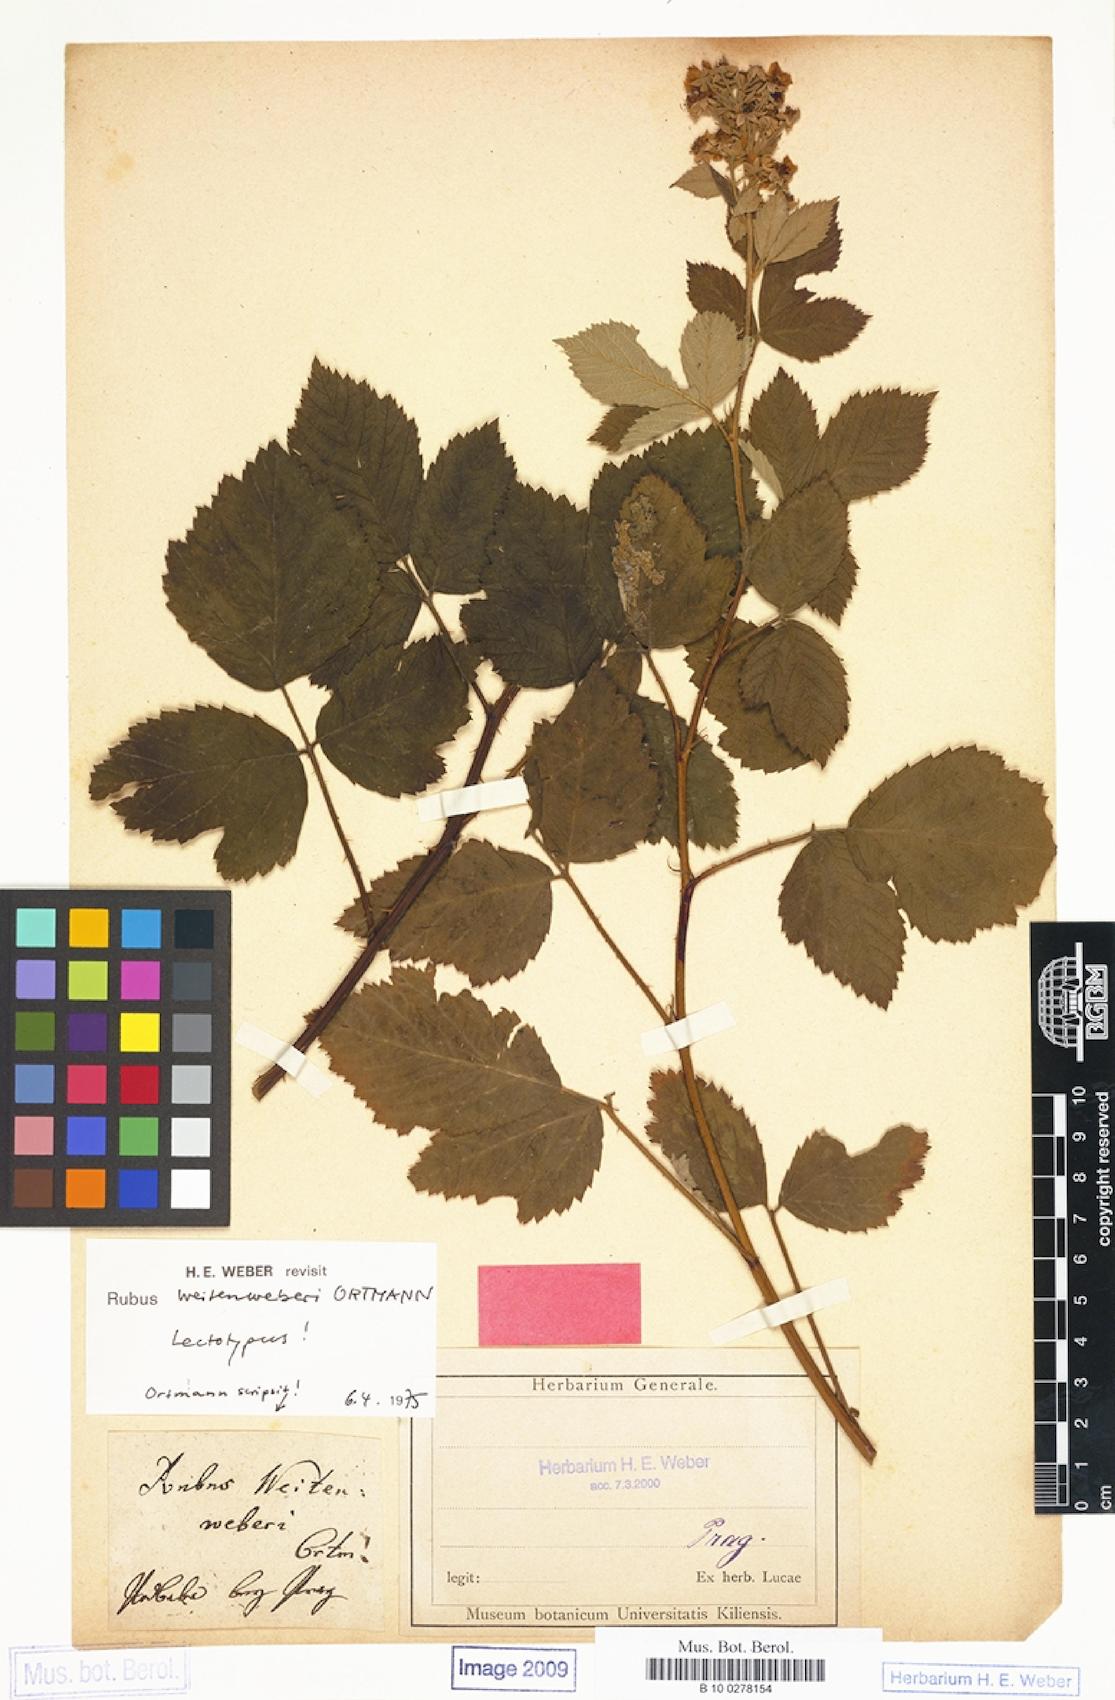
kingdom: Plantae
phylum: Tracheophyta
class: Magnoliopsida
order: Rosales
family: Rosaceae
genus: Rubus
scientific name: Rubus weitenweberi
